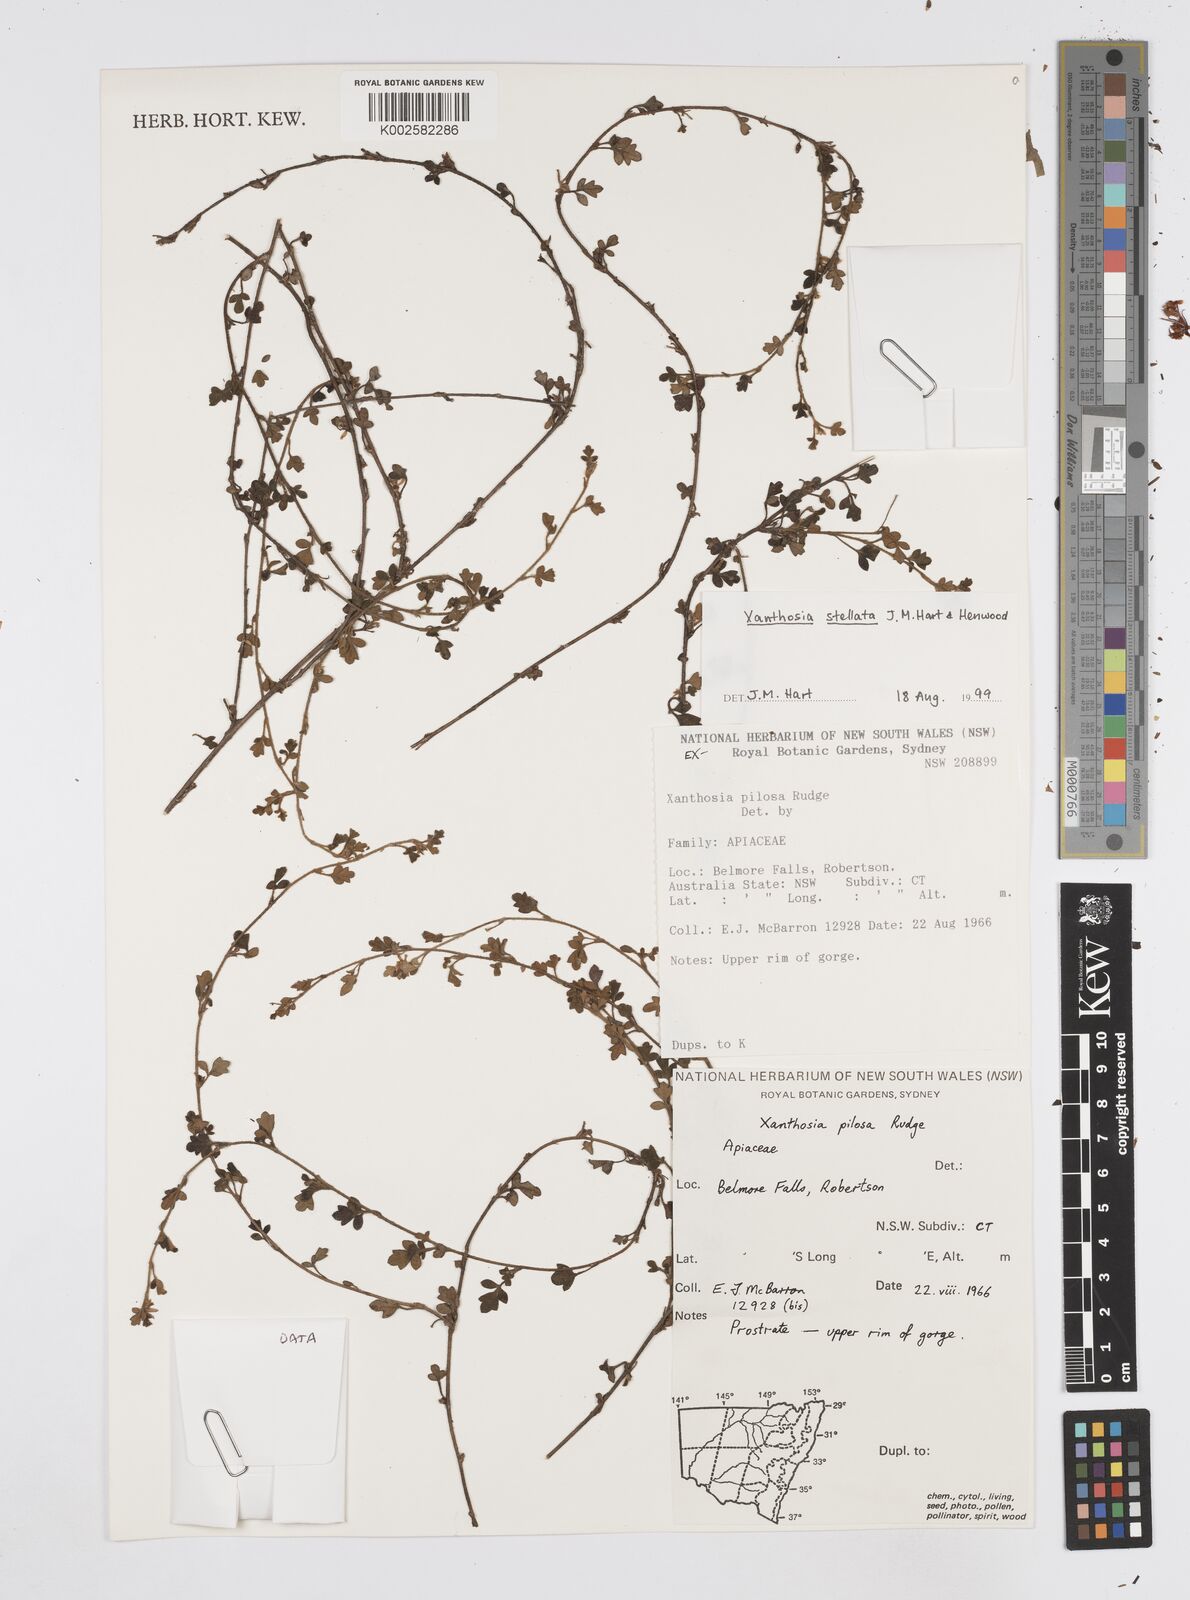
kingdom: Plantae
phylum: Tracheophyta
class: Magnoliopsida
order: Apiales
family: Apiaceae
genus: Xanthosia
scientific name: Xanthosia stellata
